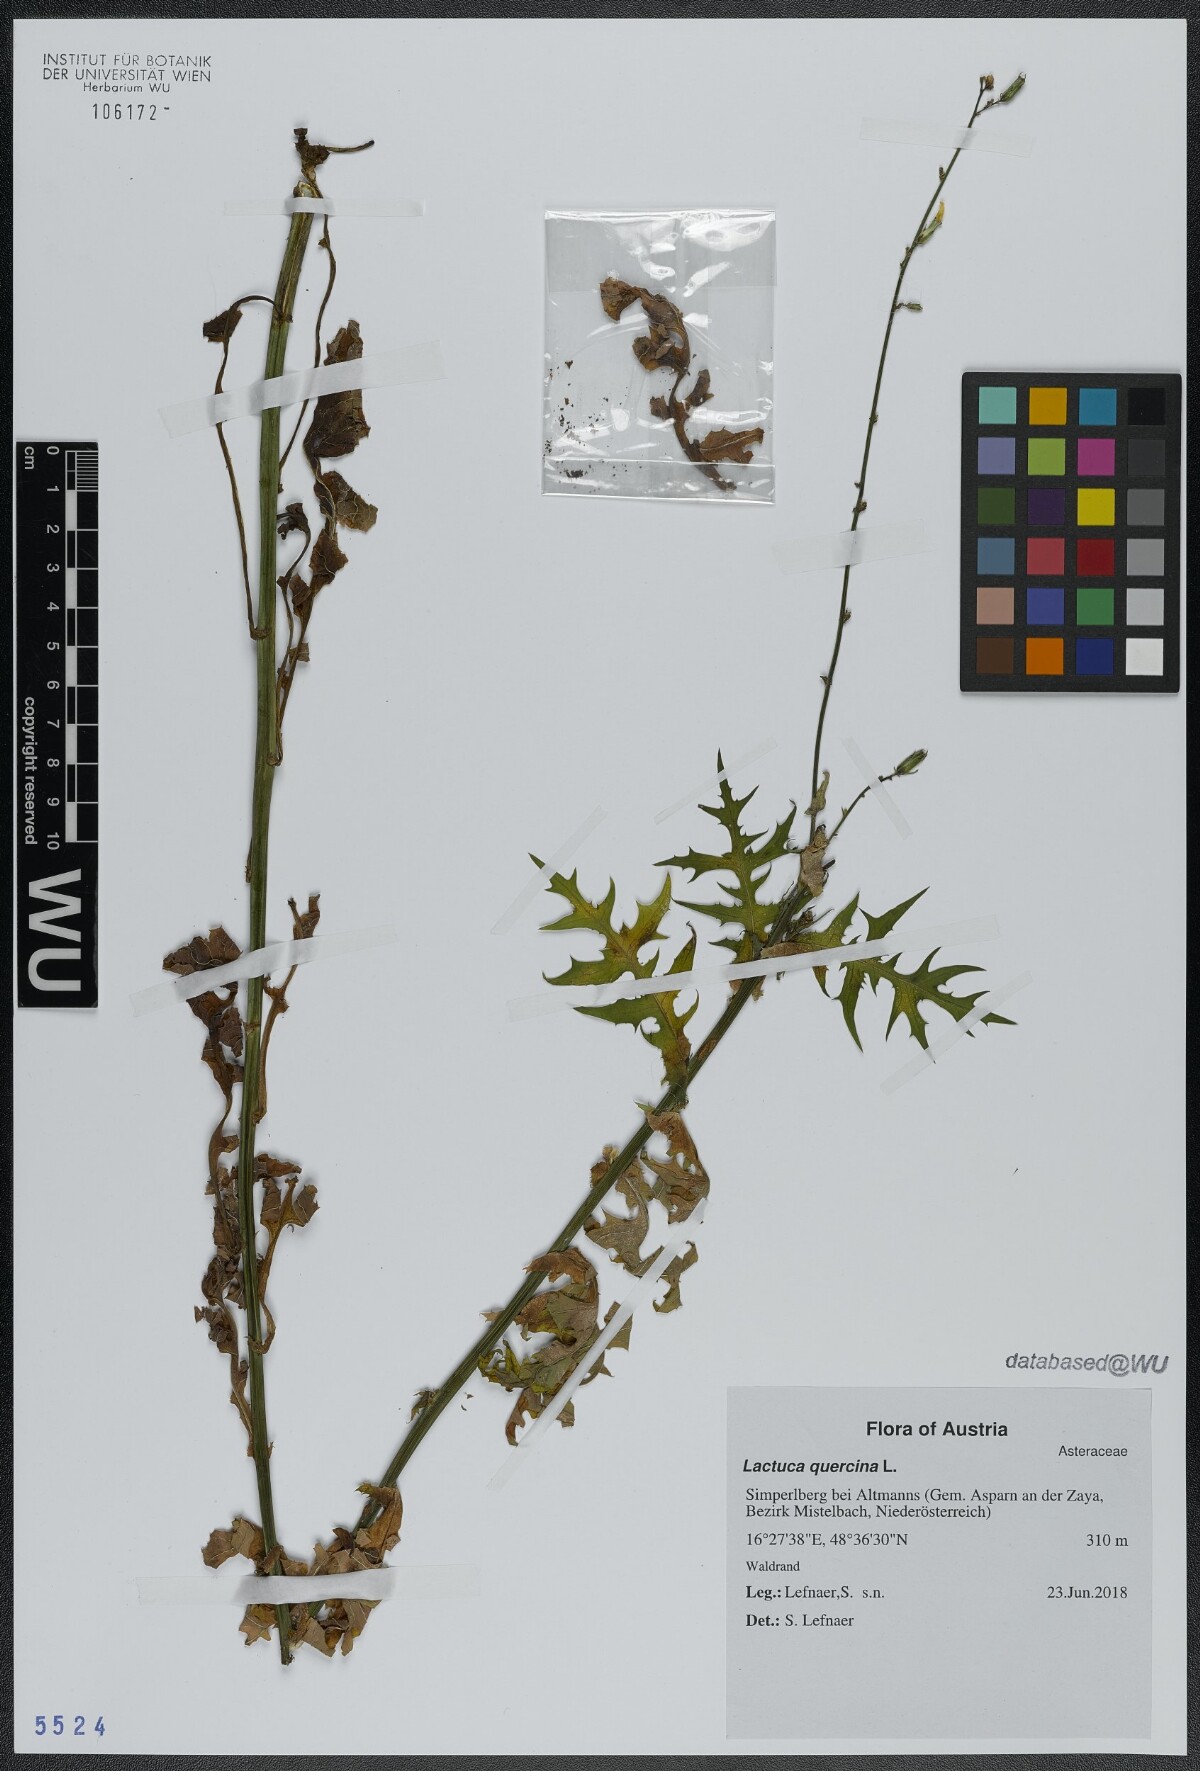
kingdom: Plantae
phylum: Tracheophyta
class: Magnoliopsida
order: Asterales
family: Asteraceae
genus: Lactuca
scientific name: Lactuca quercina
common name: Wild lettuce
